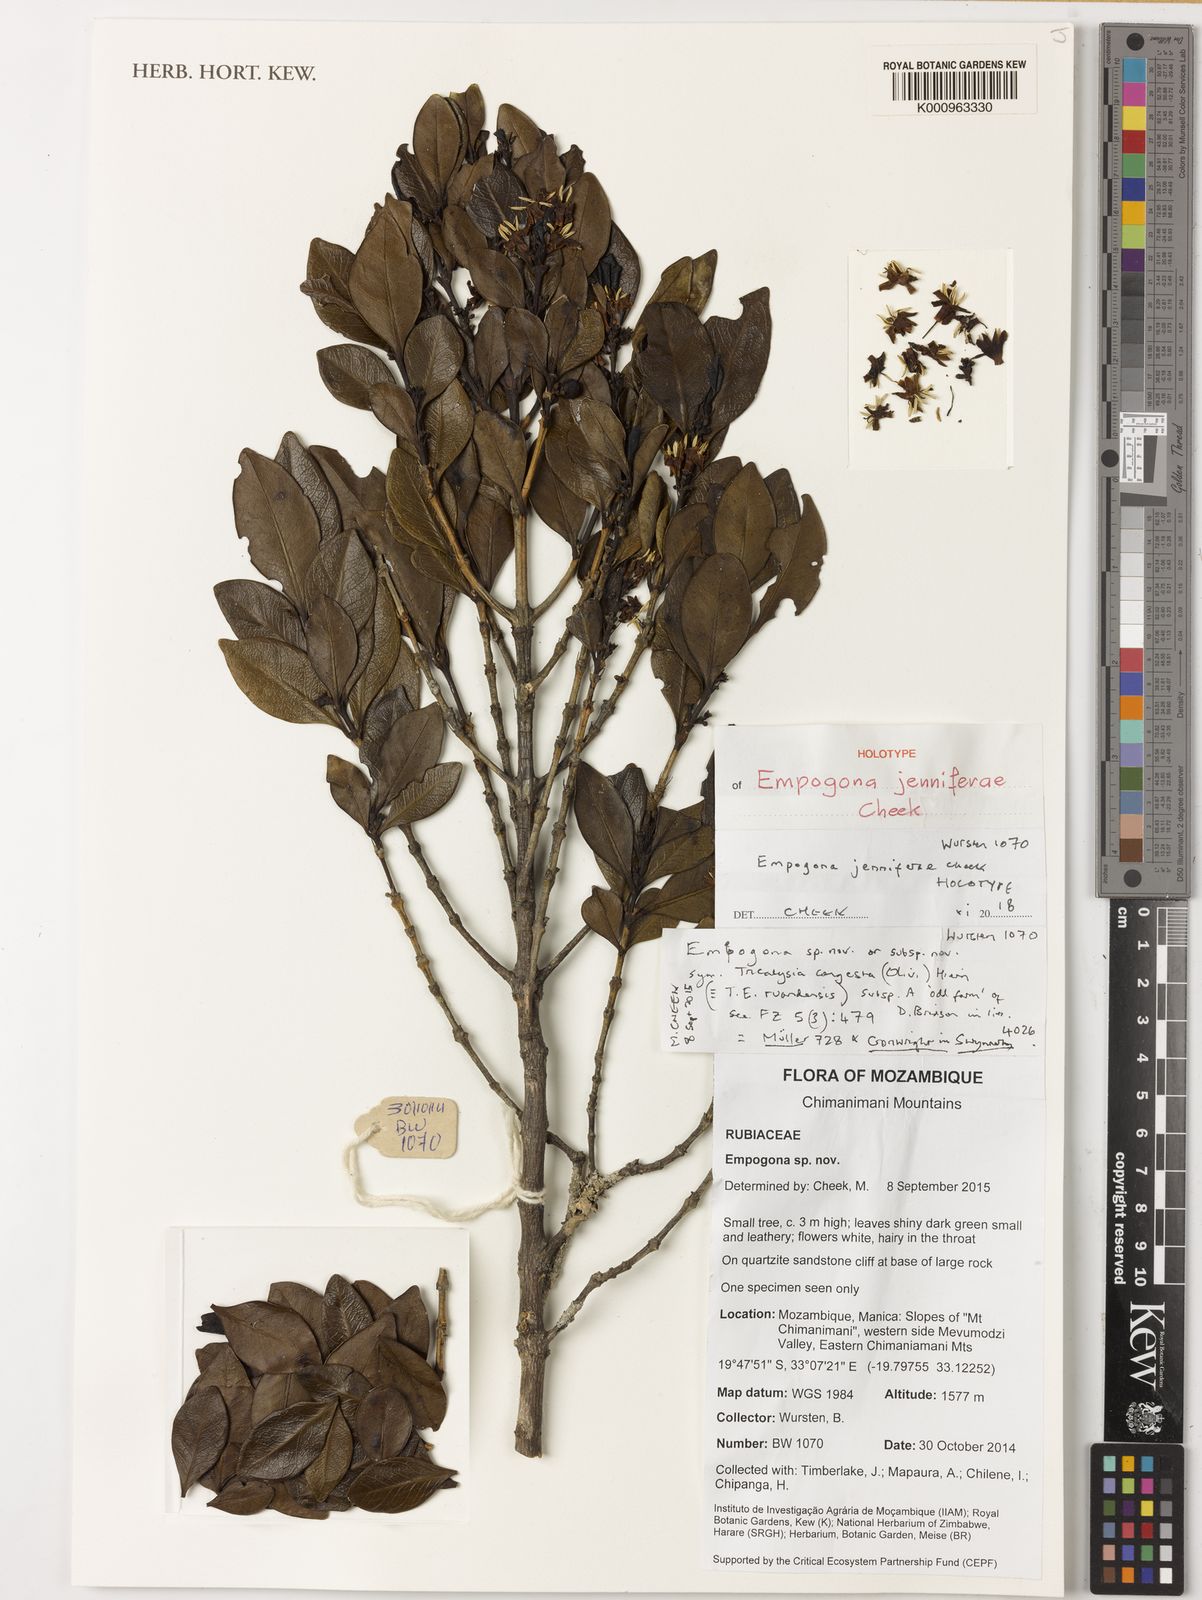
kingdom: Plantae
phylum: Tracheophyta
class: Magnoliopsida
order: Gentianales
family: Rubiaceae
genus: Empogona
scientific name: Empogona jenniferae
